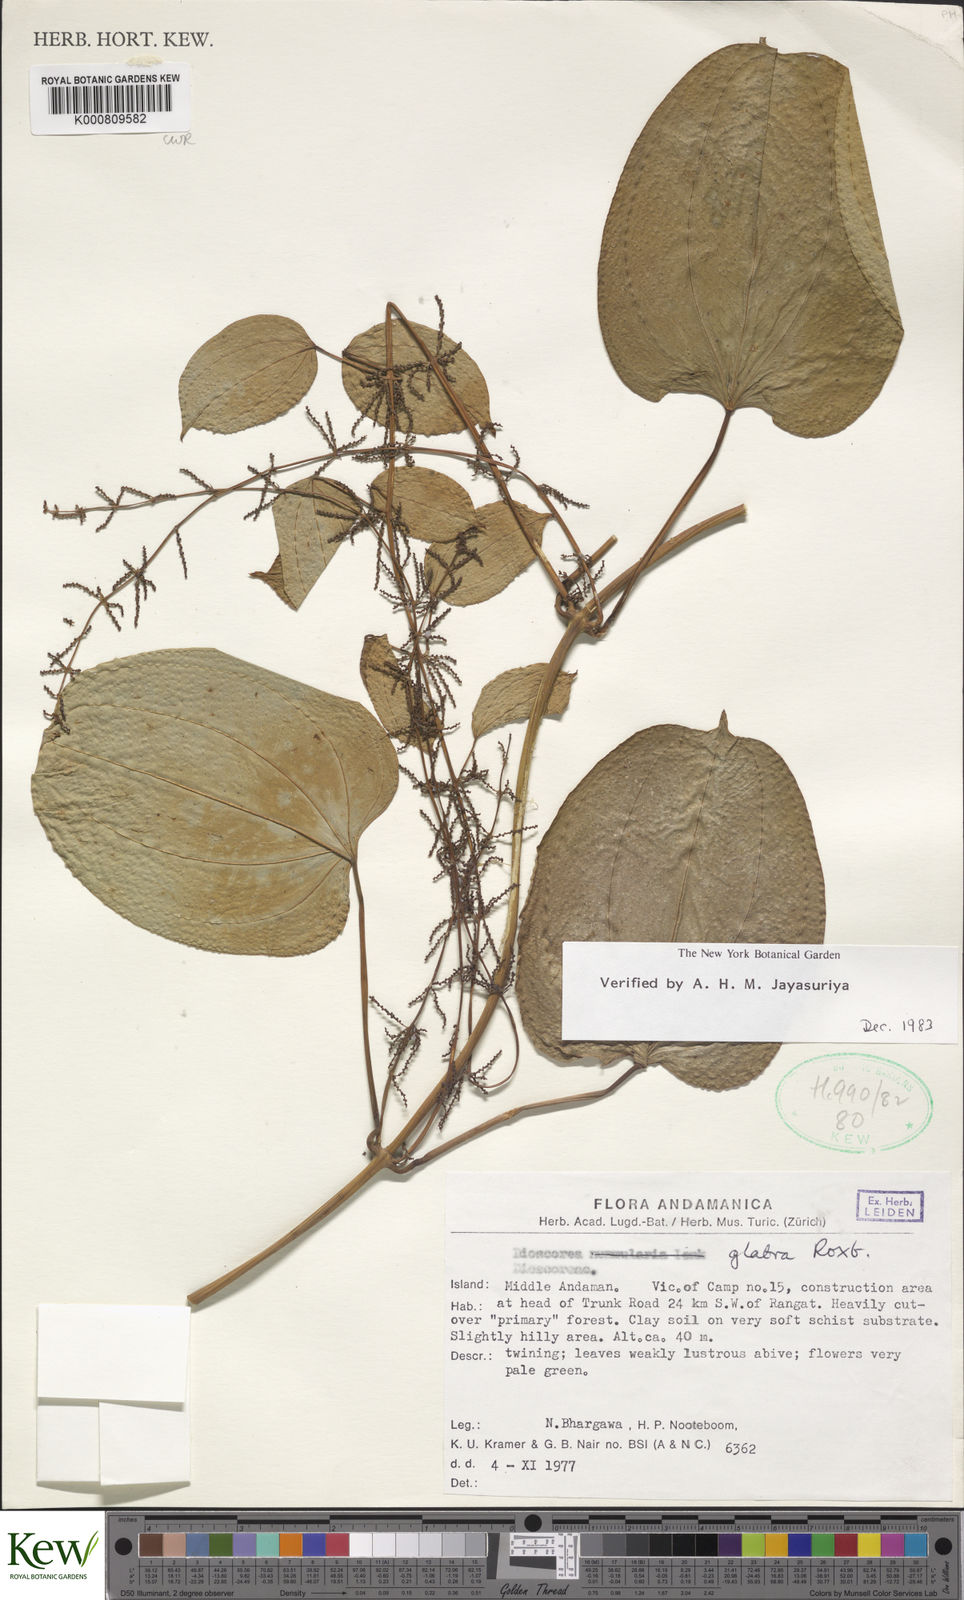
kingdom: Plantae
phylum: Tracheophyta
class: Liliopsida
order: Dioscoreales
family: Dioscoreaceae
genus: Dioscorea
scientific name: Dioscorea glabra
